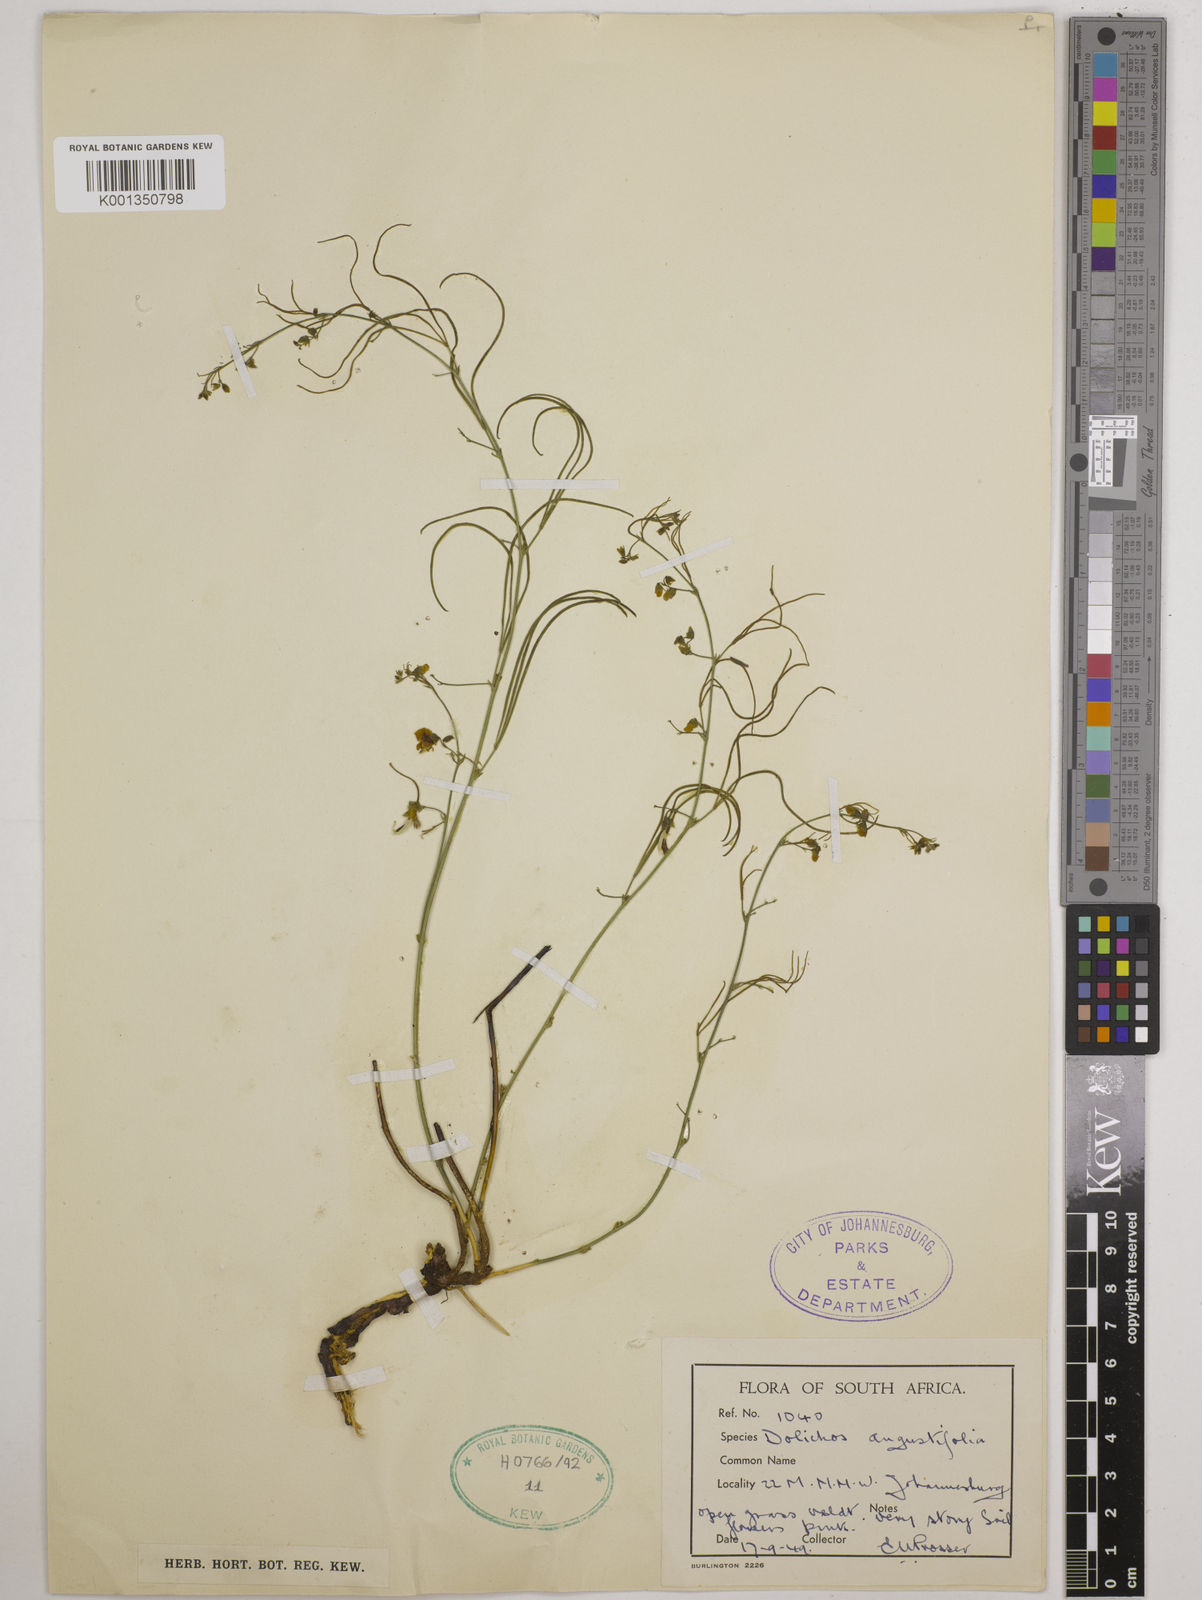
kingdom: Plantae
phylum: Tracheophyta
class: Magnoliopsida
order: Fabales
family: Fabaceae
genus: Dolichos
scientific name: Dolichos
